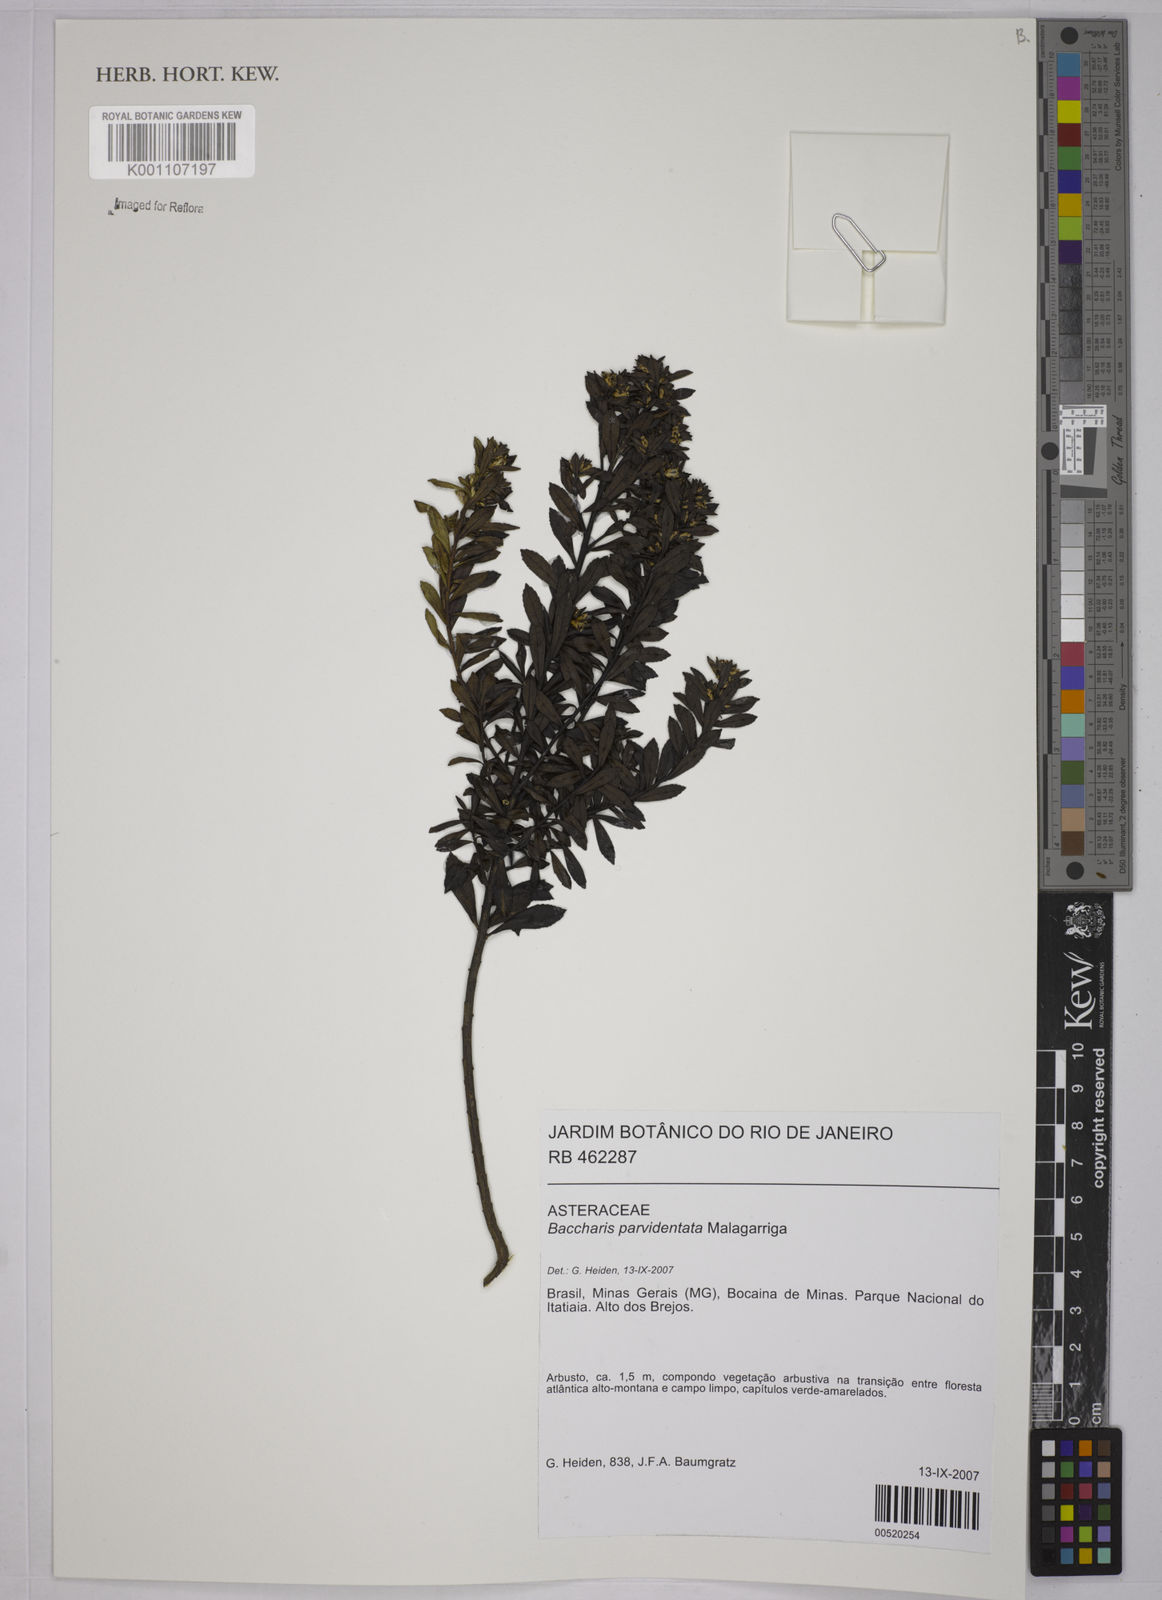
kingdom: Plantae
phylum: Tracheophyta
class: Magnoliopsida
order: Asterales
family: Asteraceae
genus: Baccharis
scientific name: Baccharis parvidentata
